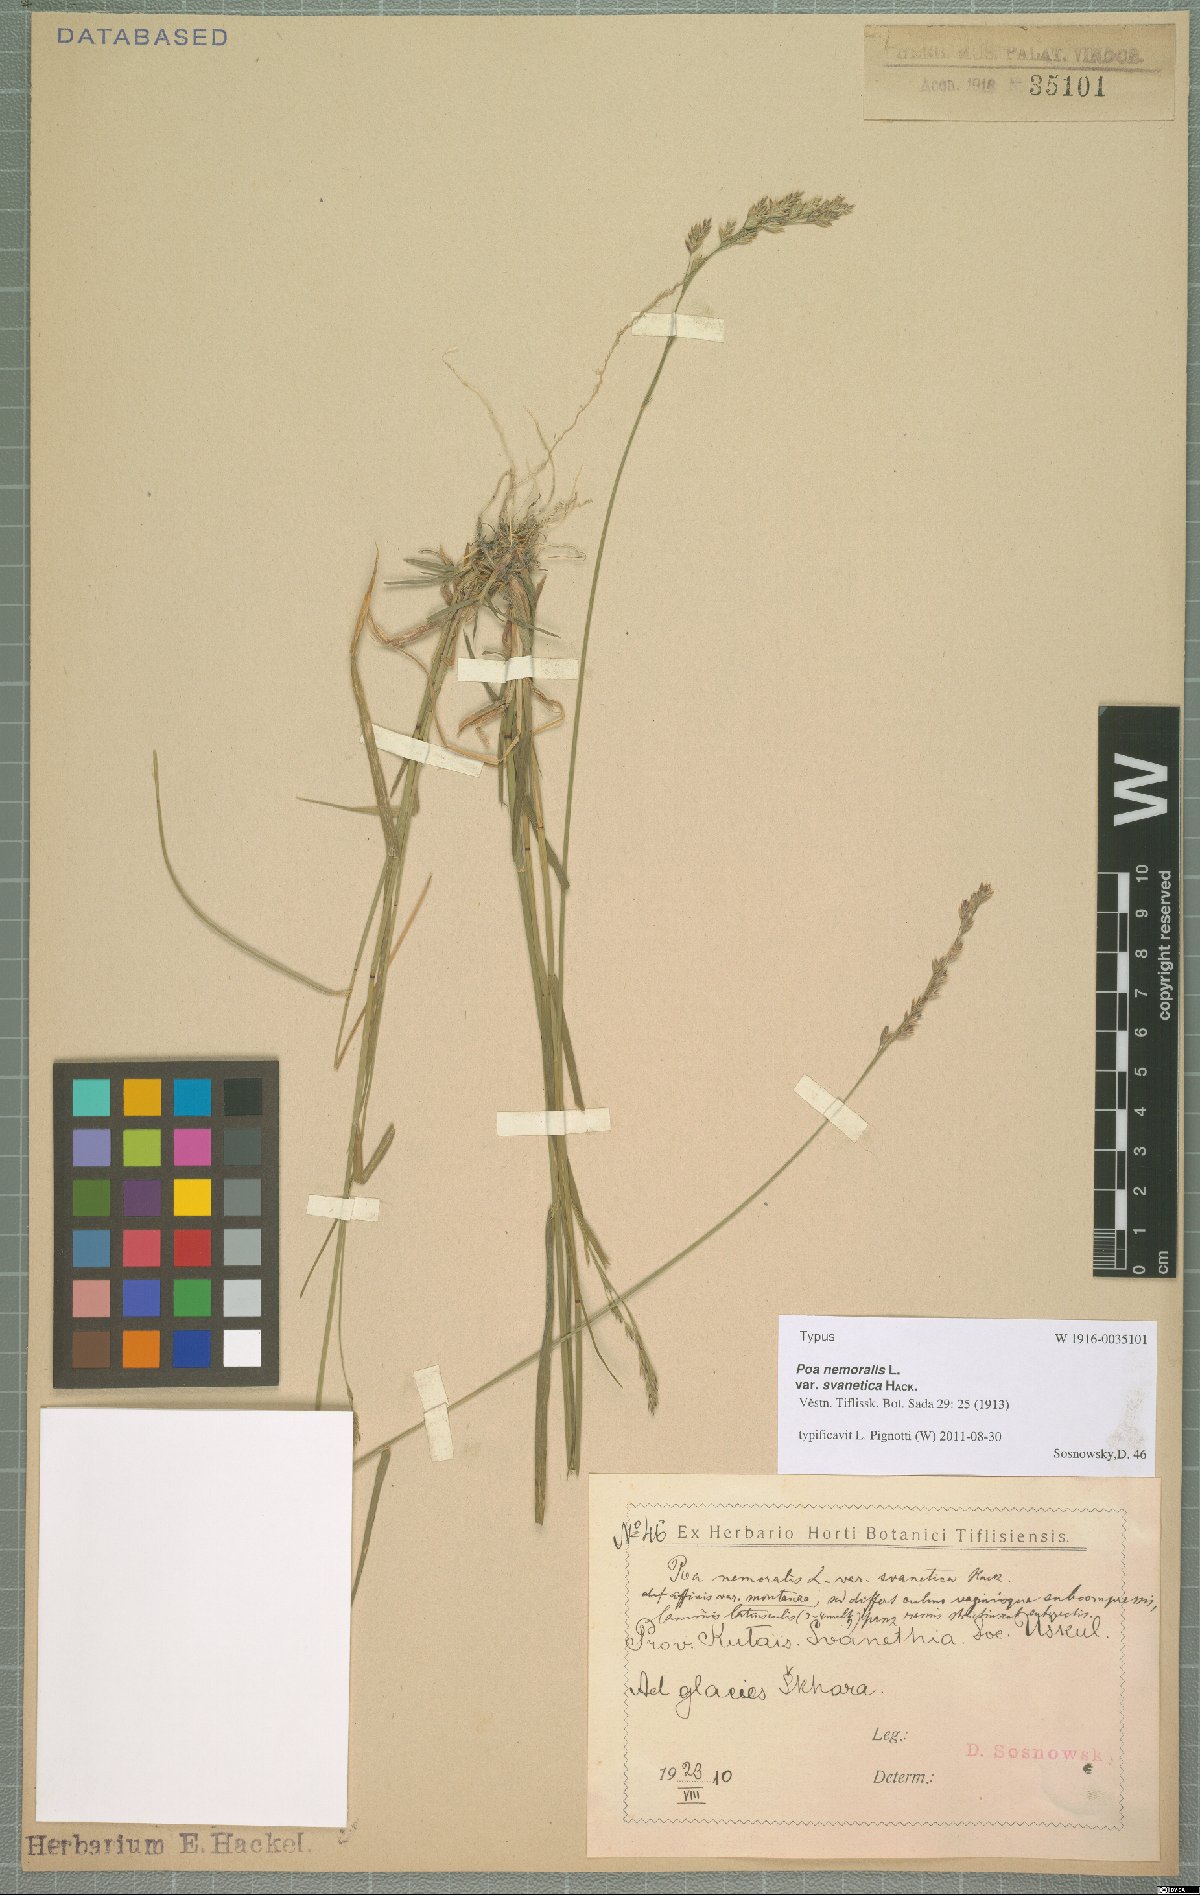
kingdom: Plantae
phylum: Tracheophyta
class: Liliopsida
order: Poales
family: Poaceae
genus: Poa
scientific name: Poa nemoralis
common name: Wood bluegrass
